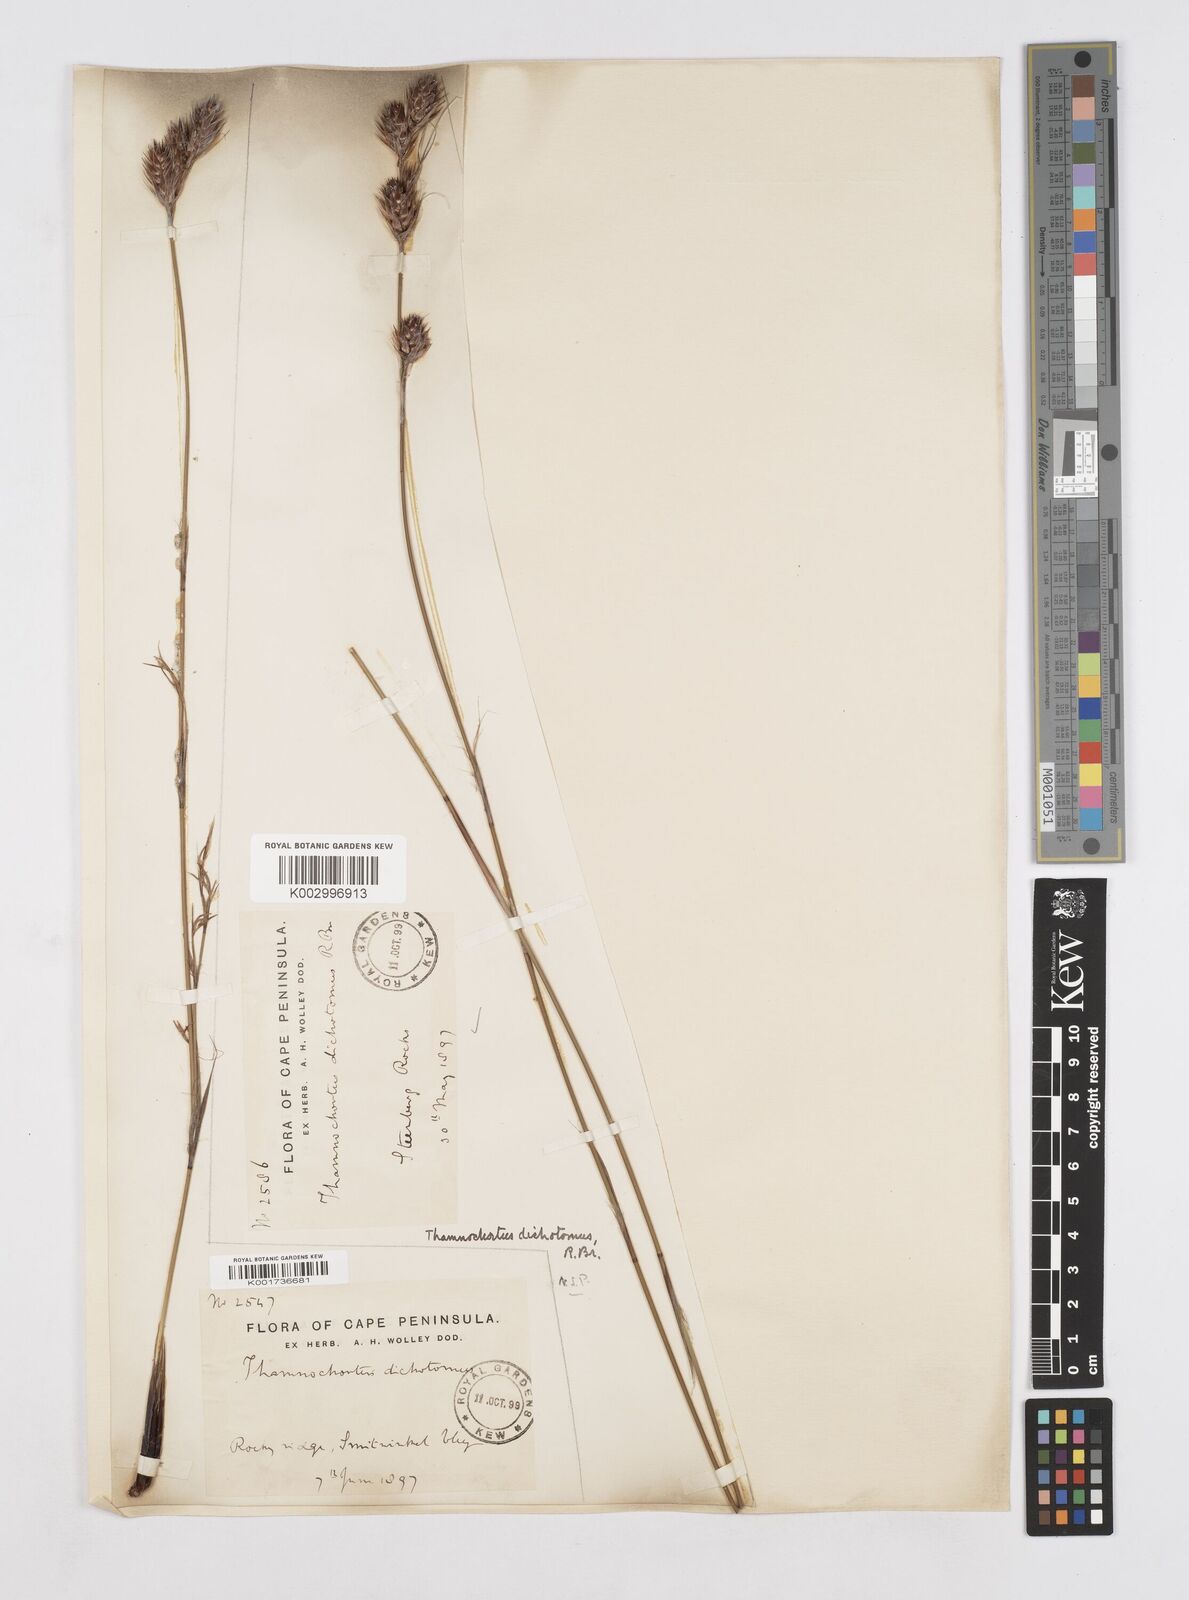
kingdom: Plantae
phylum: Tracheophyta
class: Liliopsida
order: Poales
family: Restionaceae
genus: Thamnochortus
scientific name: Thamnochortus lucens
